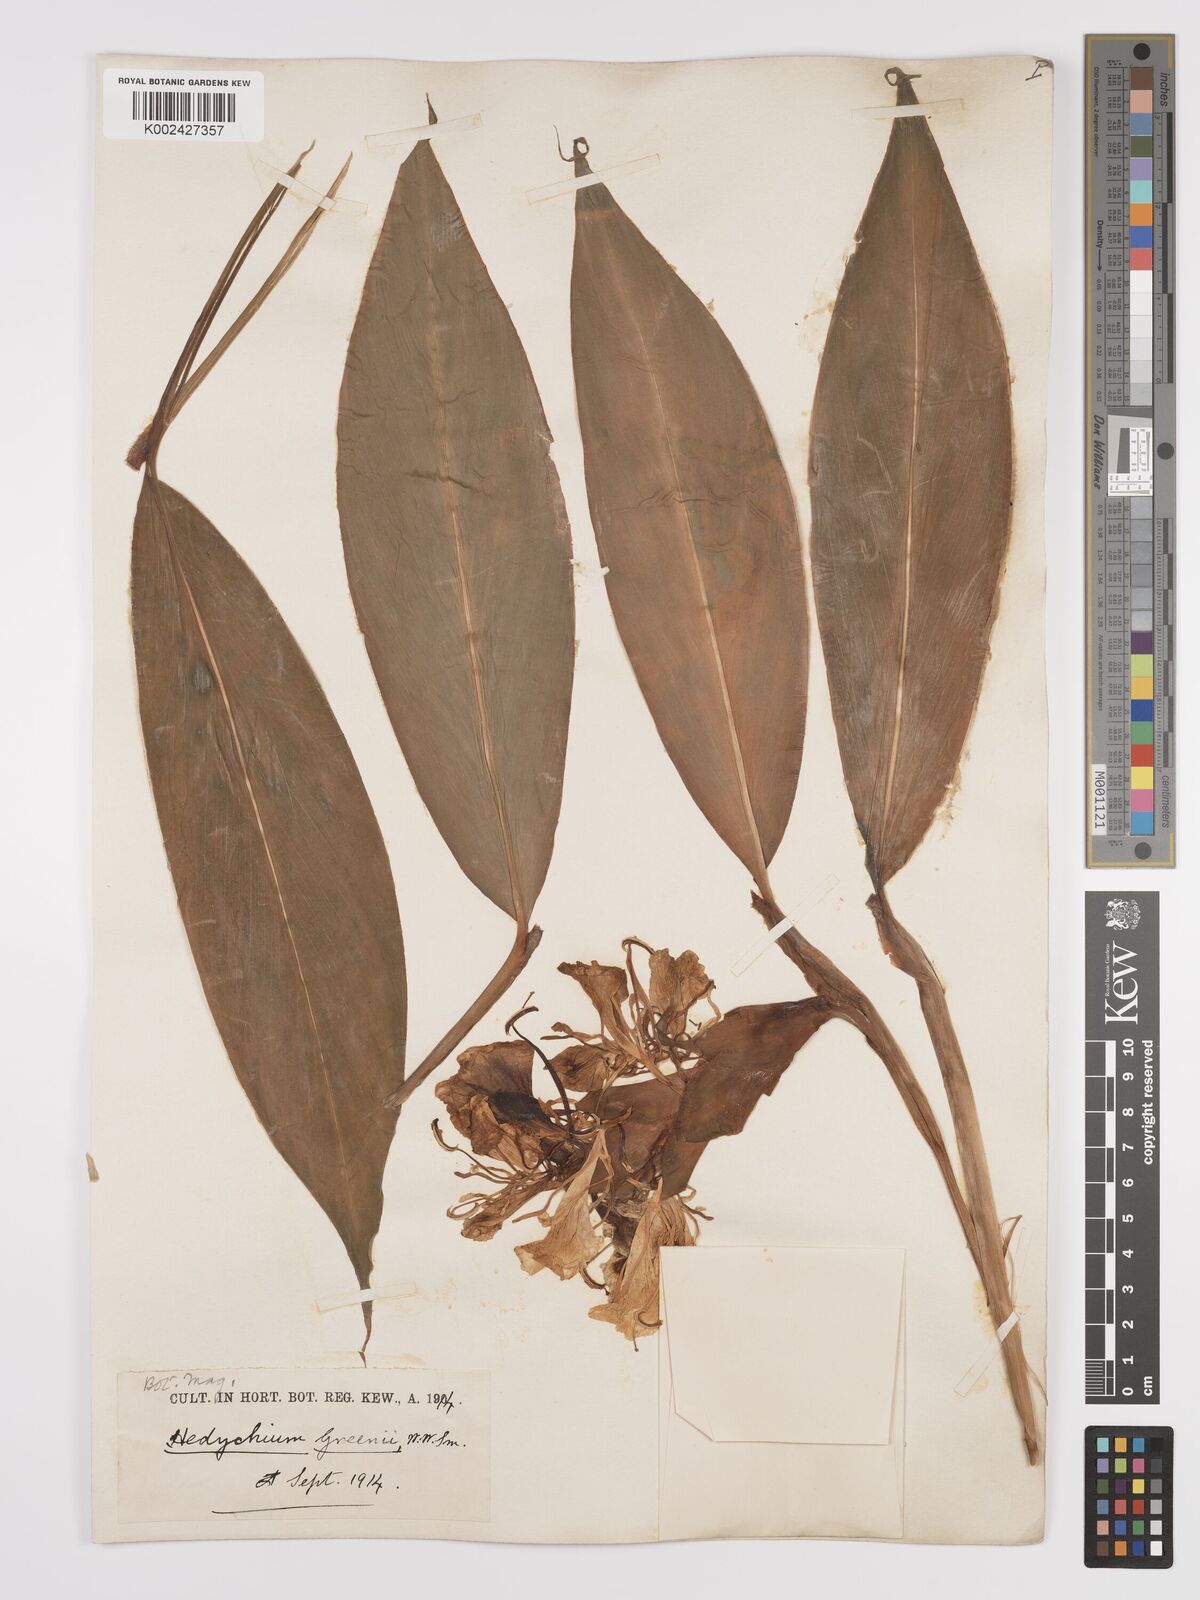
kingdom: Plantae
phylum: Tracheophyta
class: Liliopsida
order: Zingiberales
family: Zingiberaceae
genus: Hedychium
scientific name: Hedychium greenii
